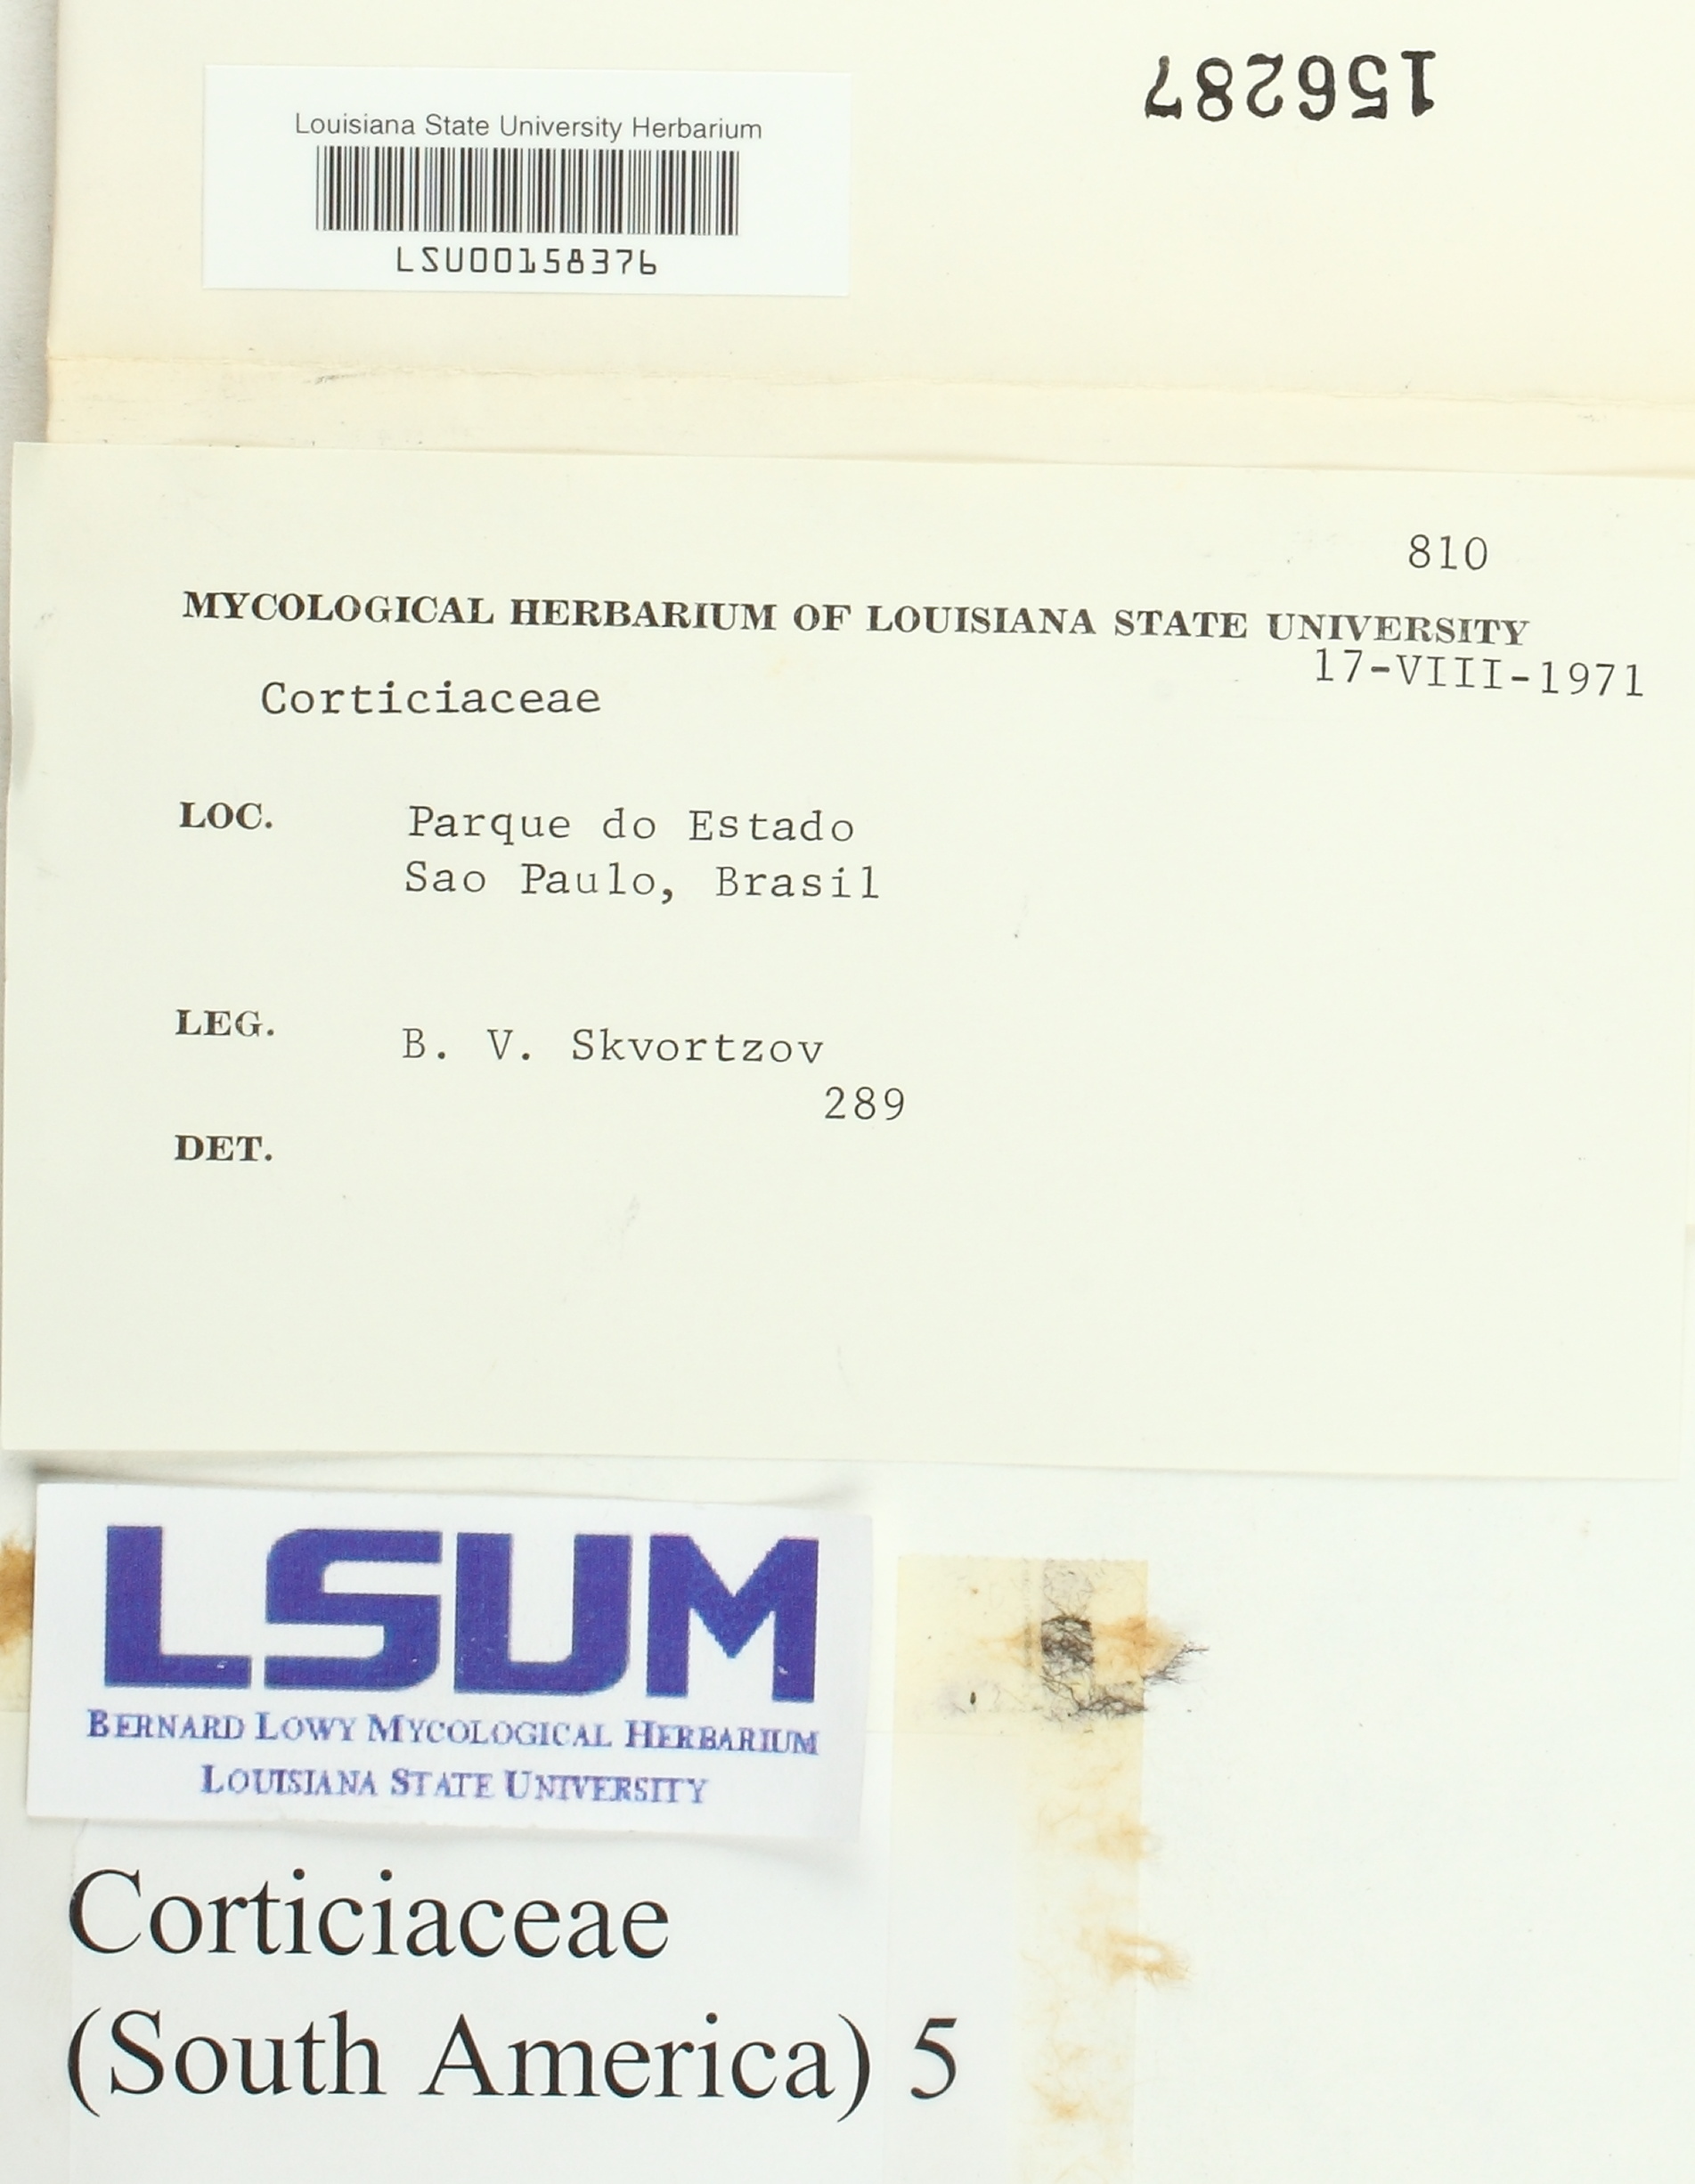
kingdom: Fungi
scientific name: Fungi
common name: Fungi
